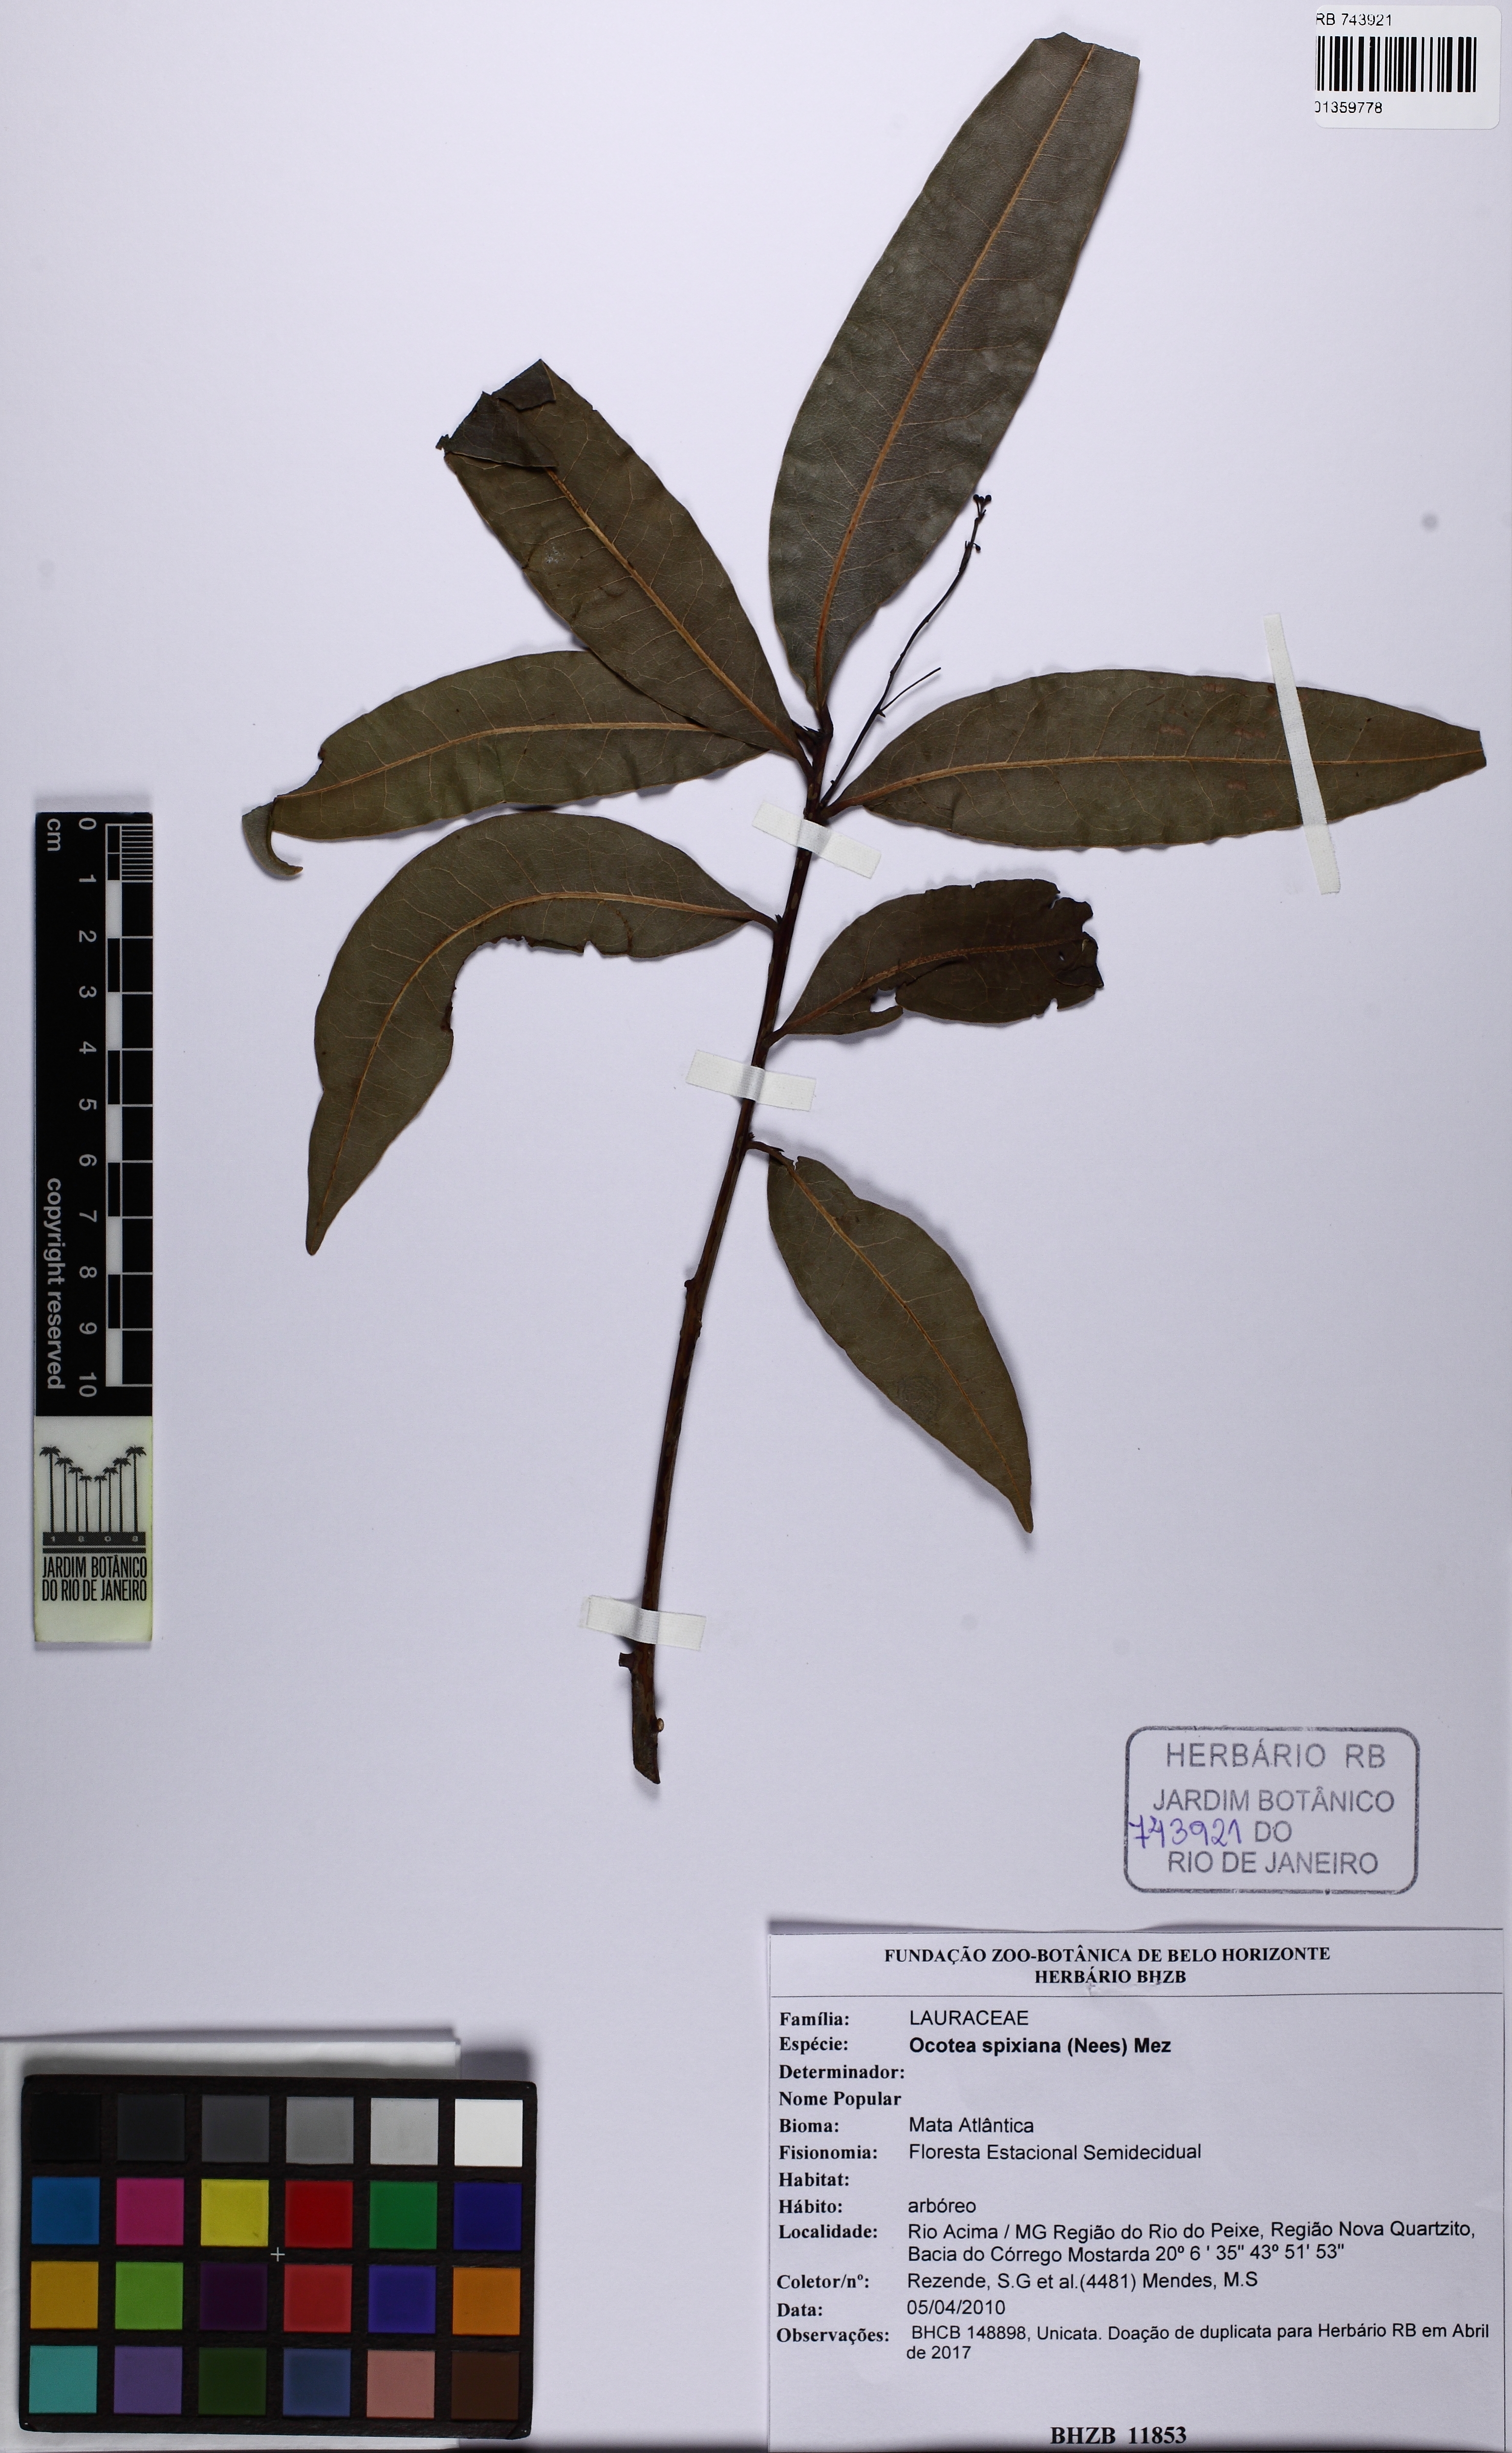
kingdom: Plantae
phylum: Tracheophyta
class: Magnoliopsida
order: Laurales
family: Lauraceae
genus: Ocotea
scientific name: Ocotea spixiana
